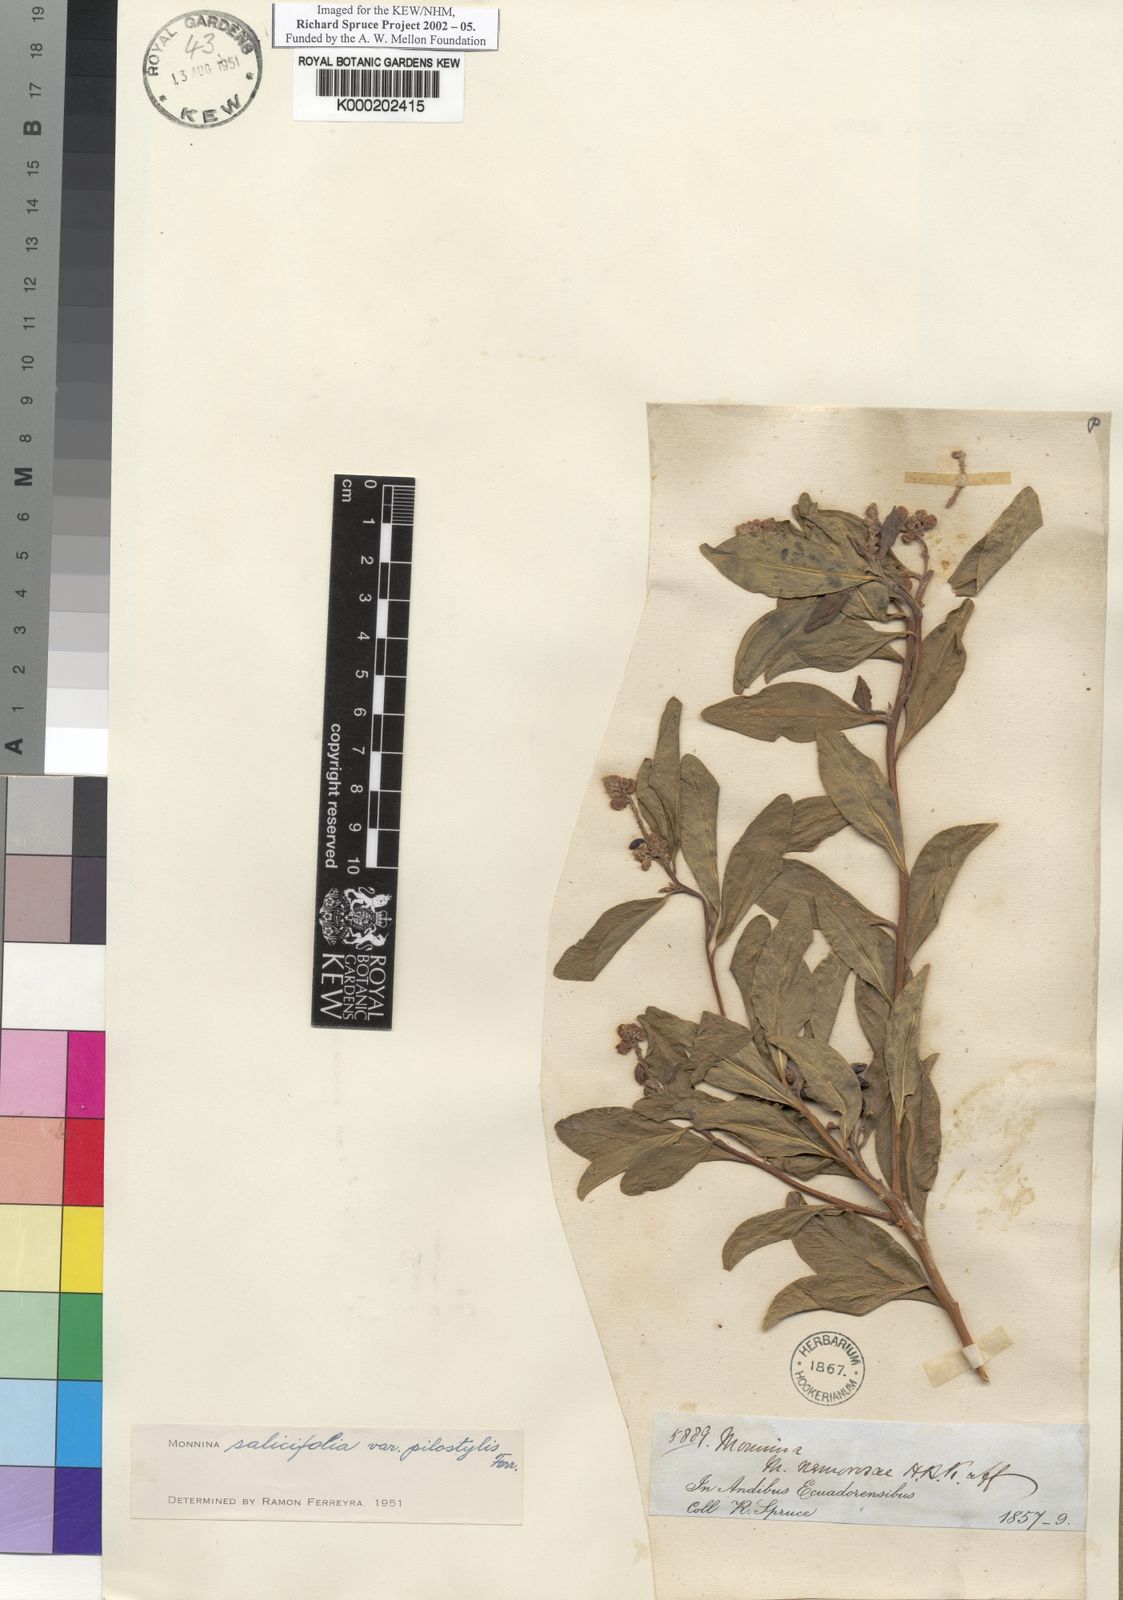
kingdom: Plantae
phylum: Tracheophyta
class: Magnoliopsida
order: Fabales
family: Polygalaceae
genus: Monnina
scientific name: Monnina salicifolia
